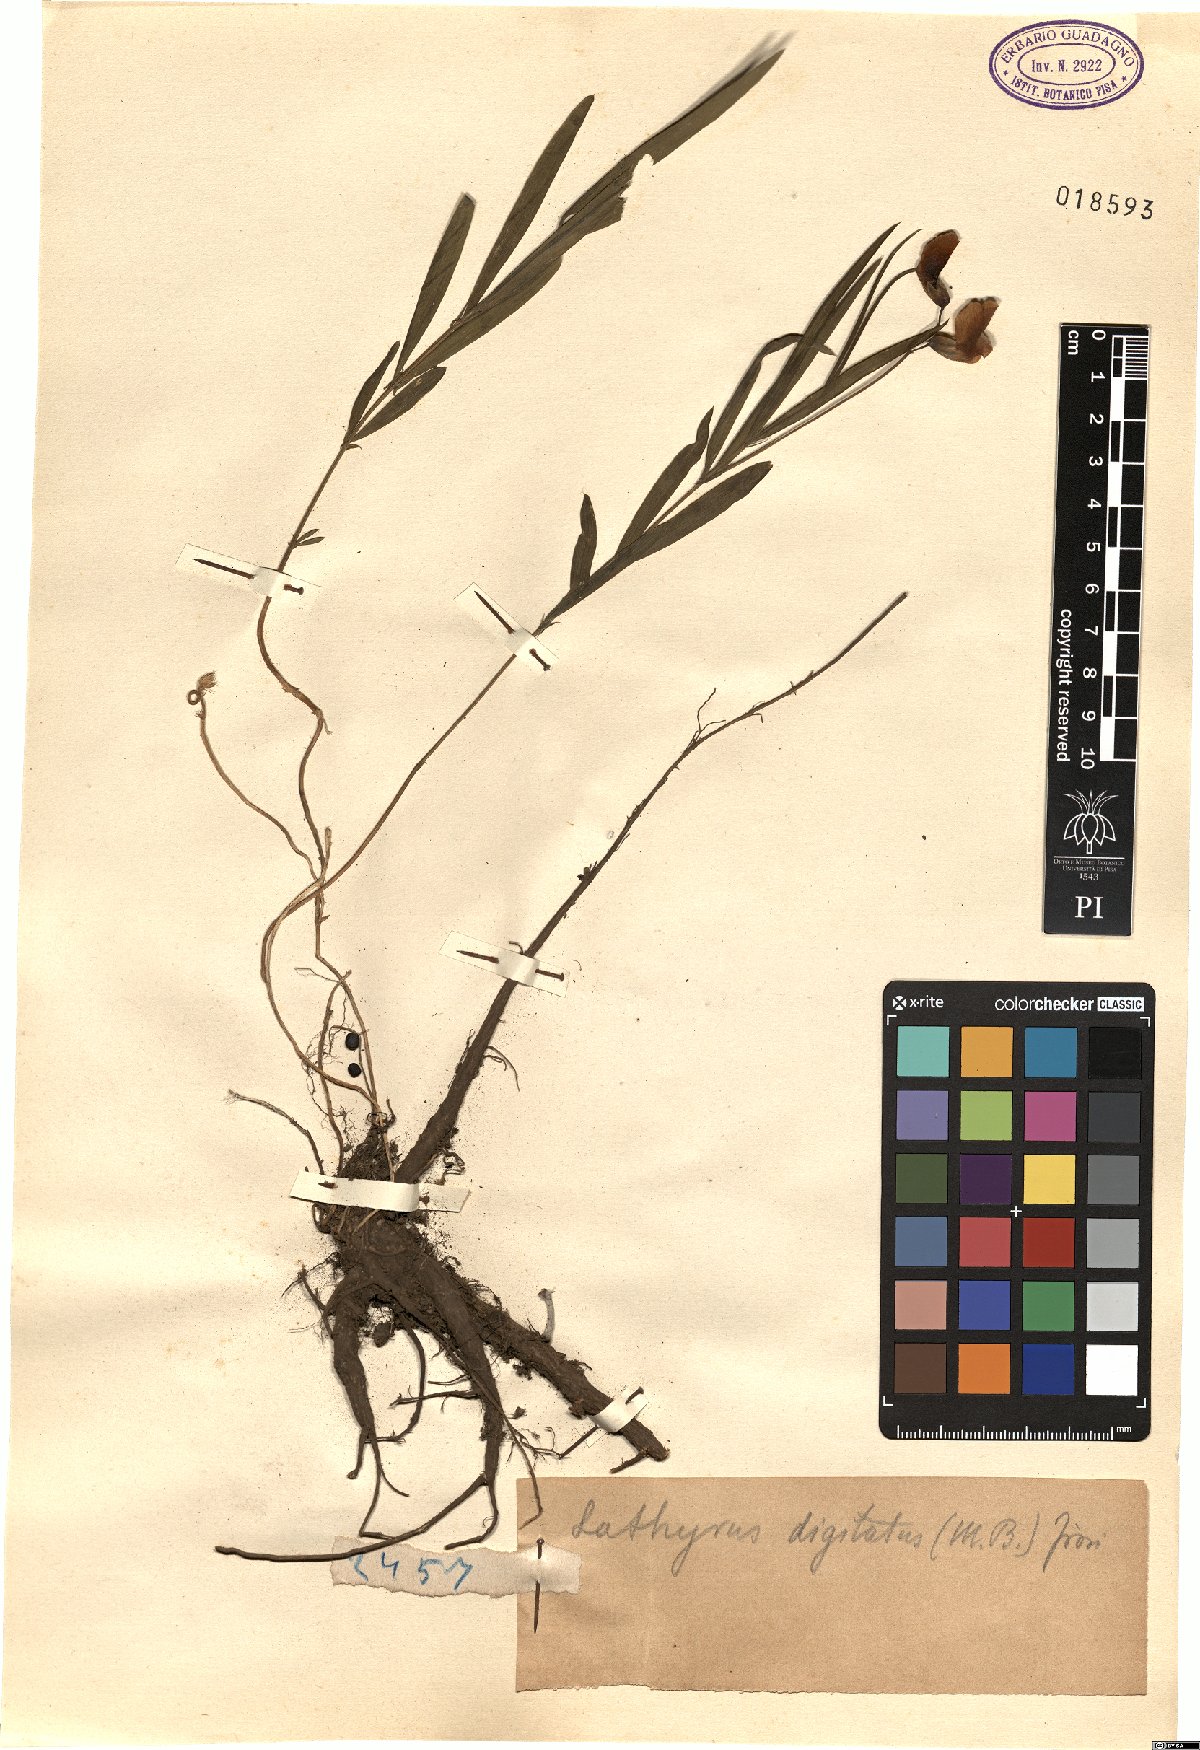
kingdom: Plantae
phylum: Tracheophyta
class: Magnoliopsida
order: Fabales
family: Fabaceae
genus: Lathyrus
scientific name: Lathyrus digitatus
